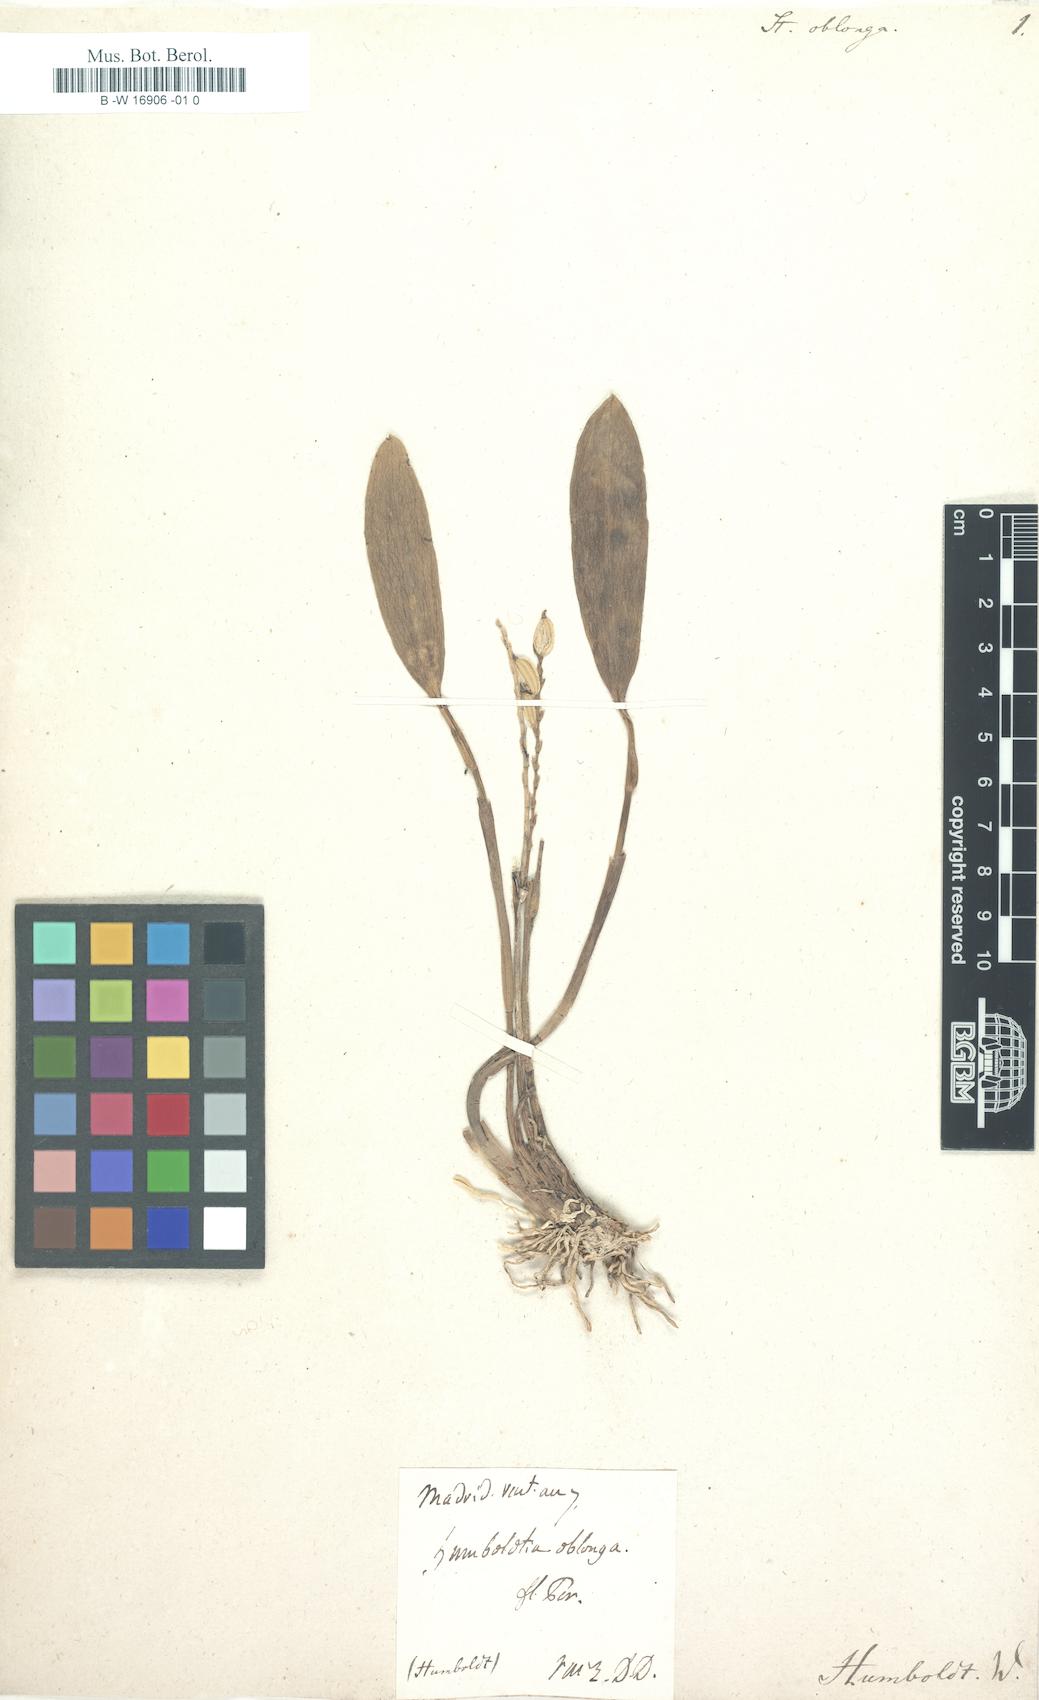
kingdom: Plantae
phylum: Tracheophyta
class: Liliopsida
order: Asparagales
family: Orchidaceae
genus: Stelis
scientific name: Stelis oblonga
